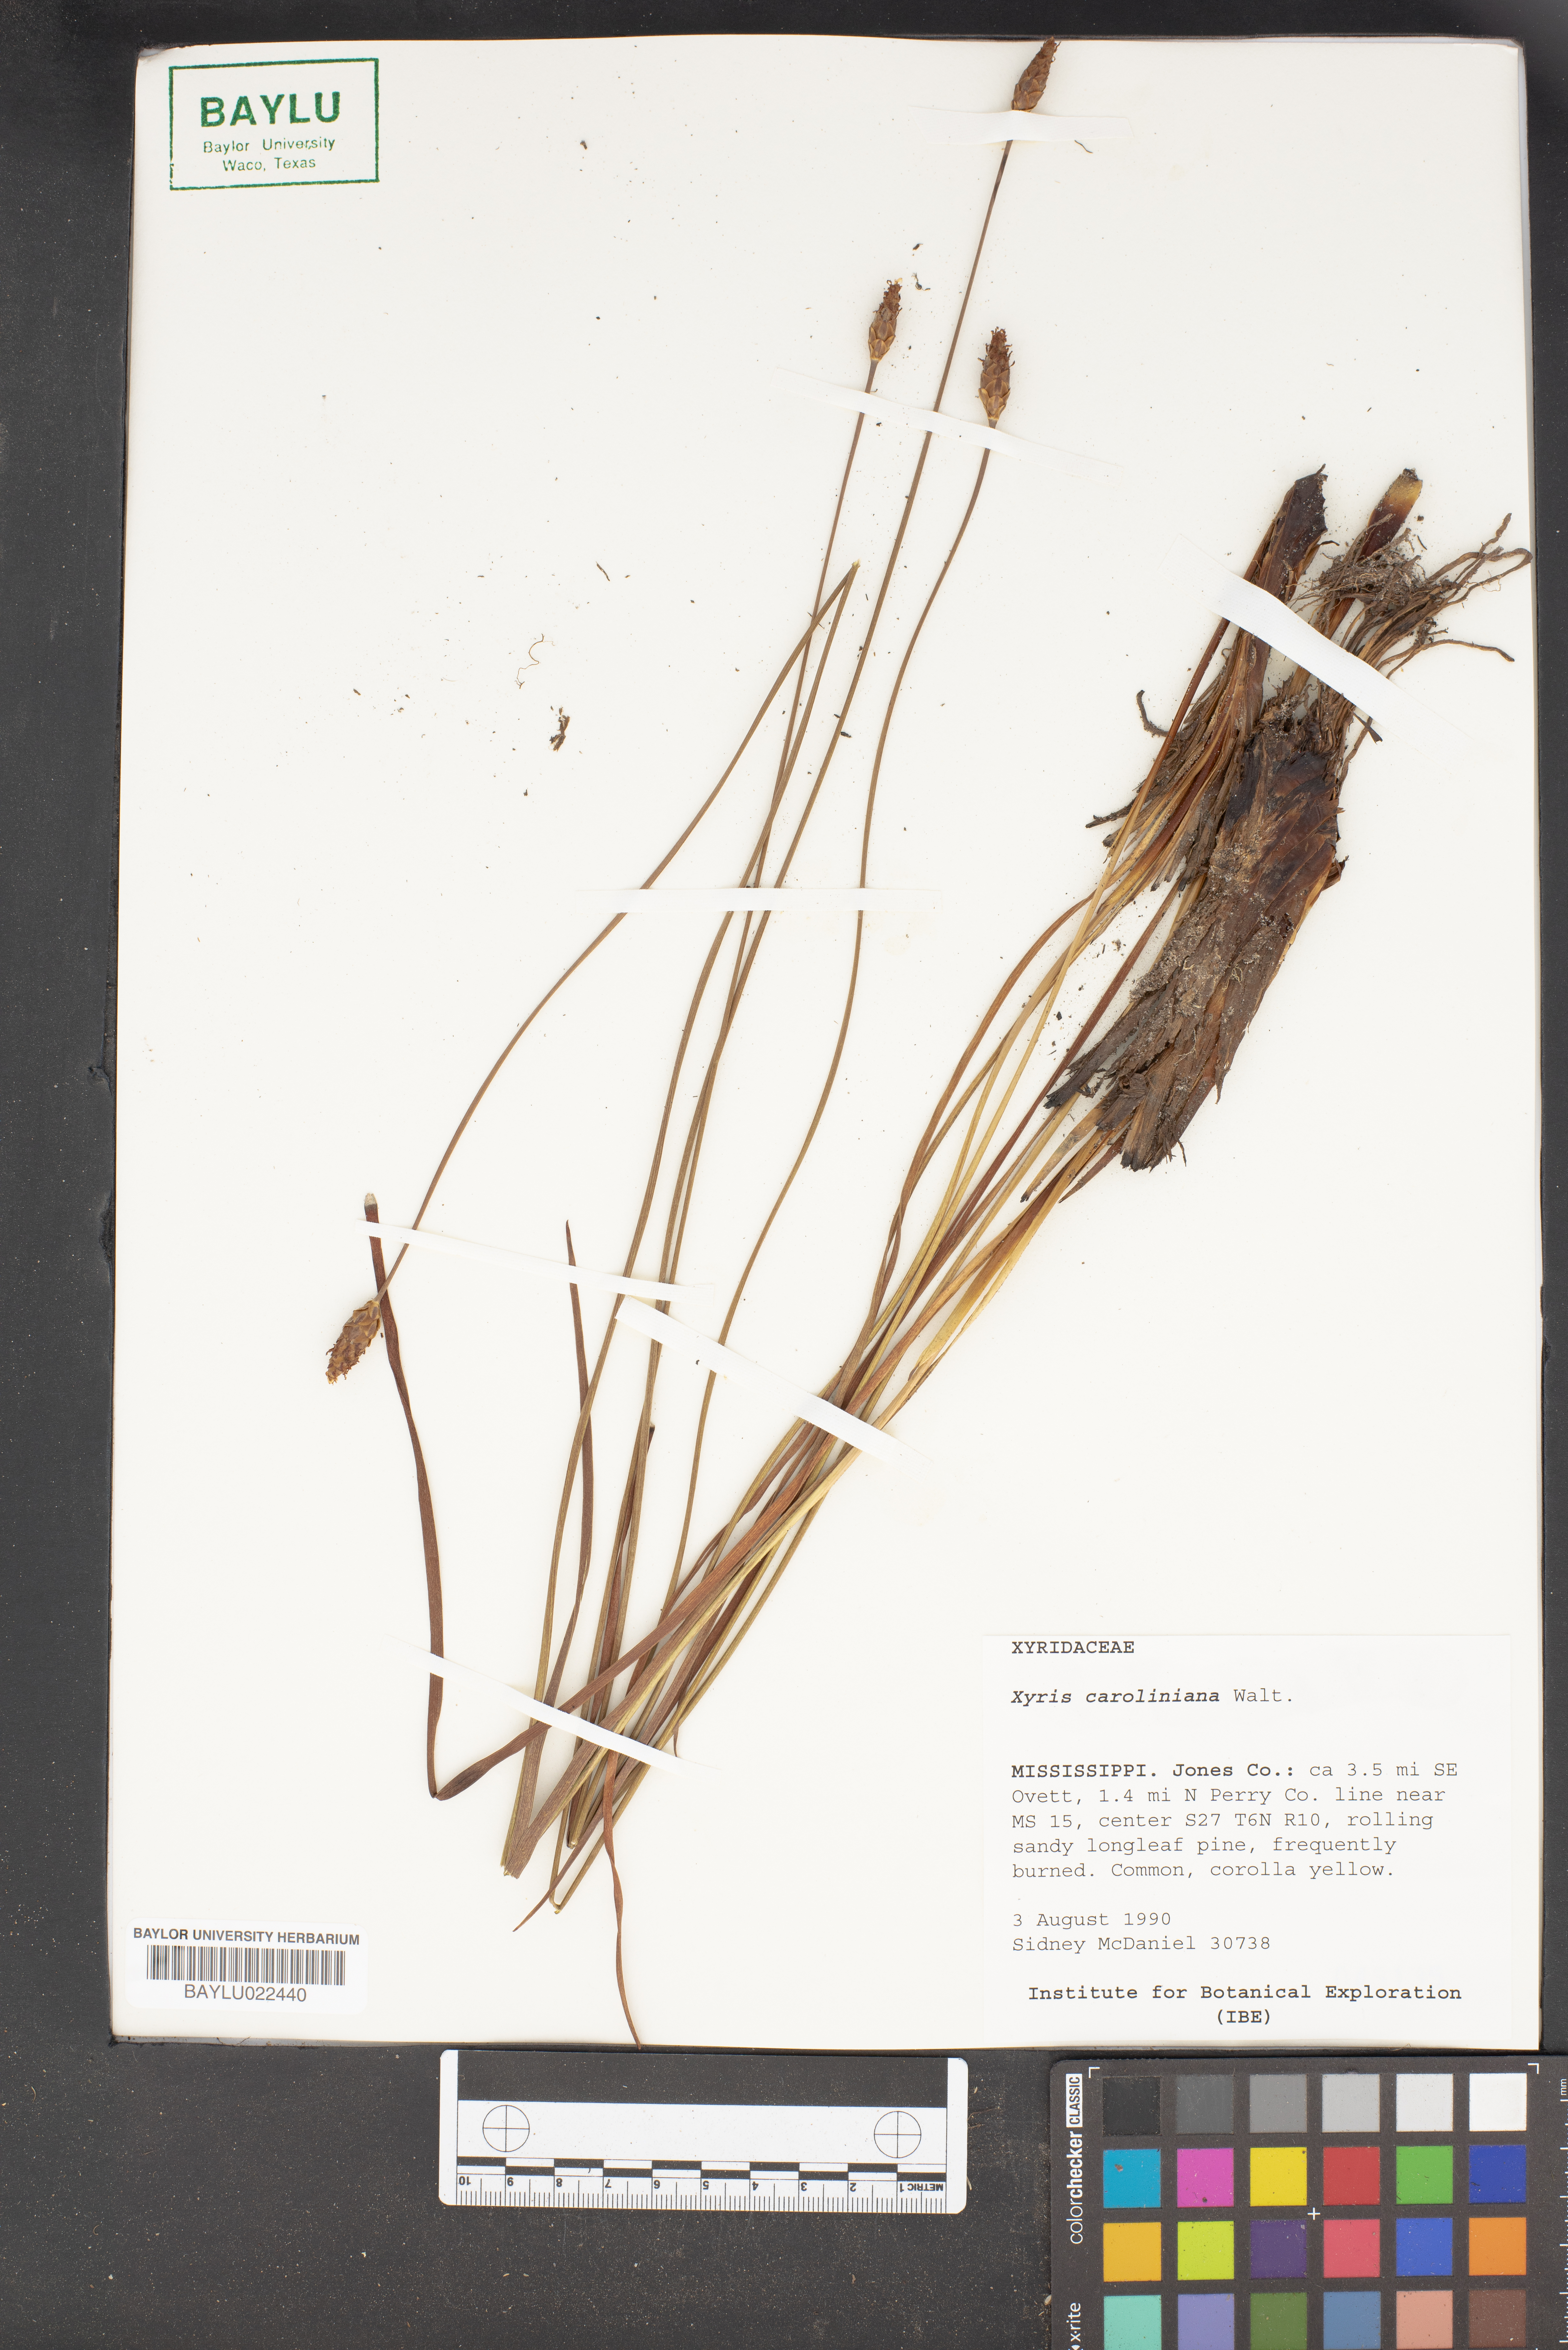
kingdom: Plantae
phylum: Tracheophyta
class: Liliopsida
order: Poales
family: Xyridaceae
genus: Xyris
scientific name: Xyris caroliniana
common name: Carolina yellow-eyed-grass
